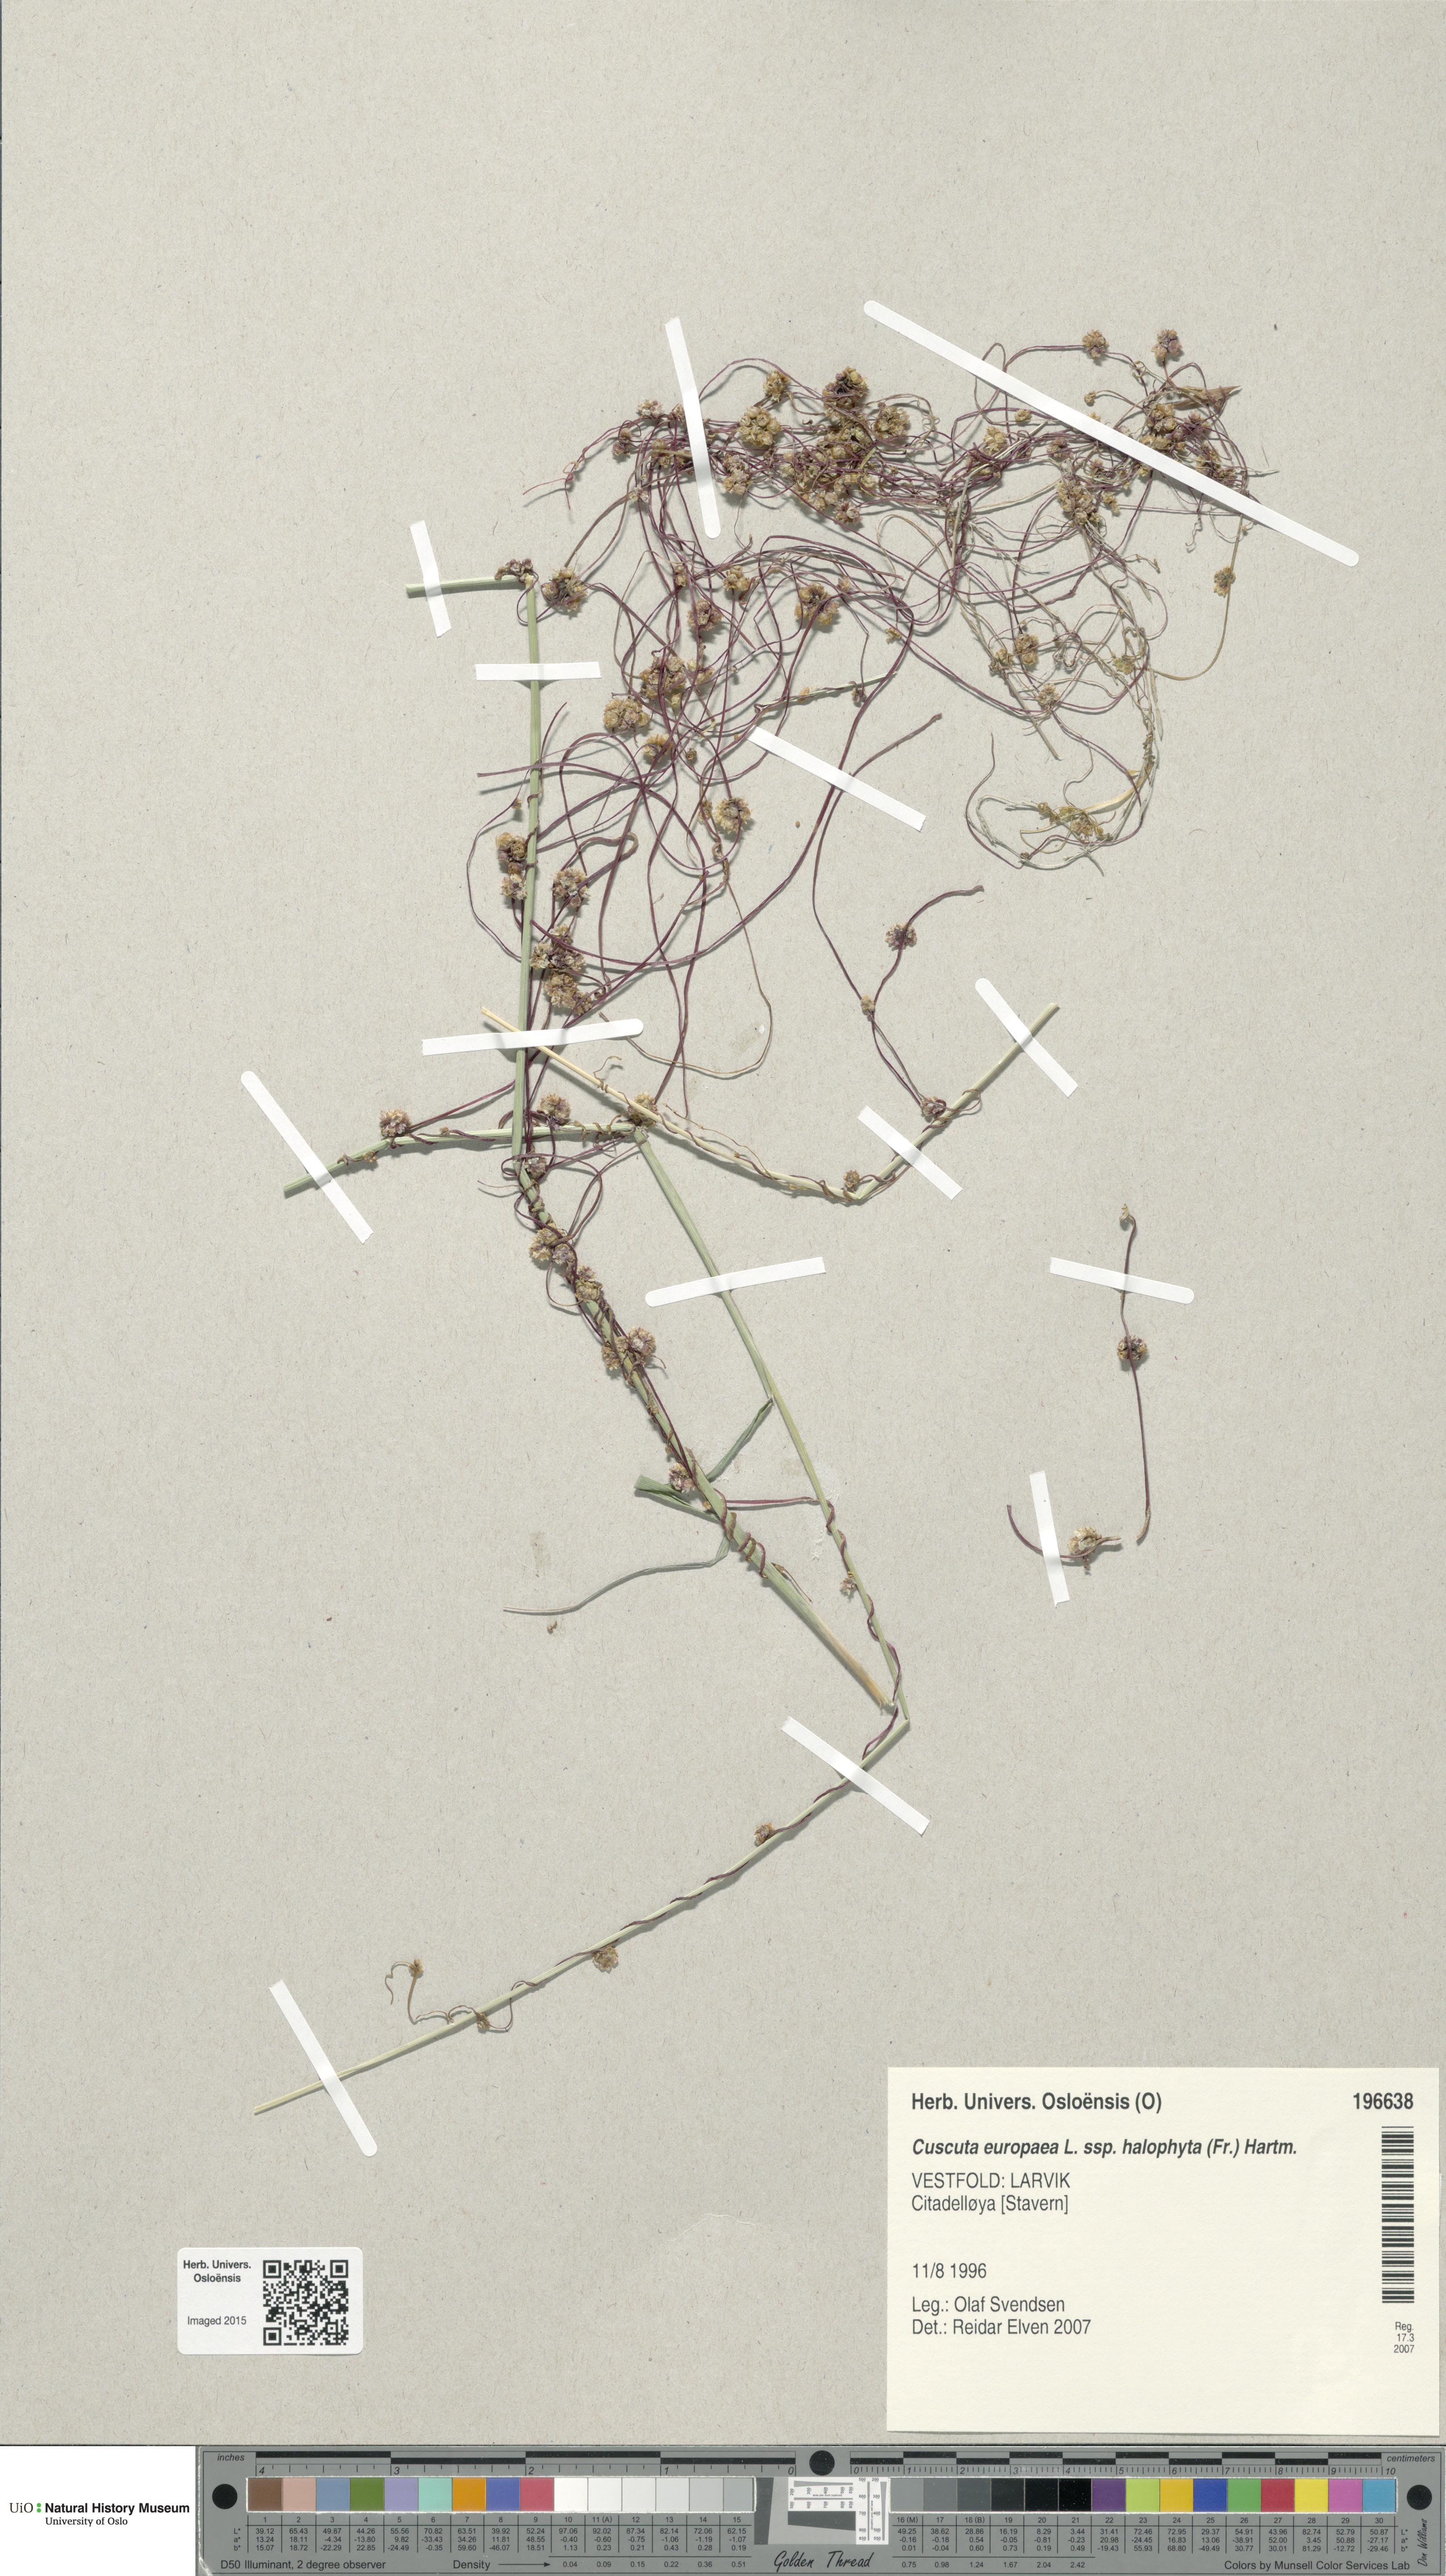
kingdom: Plantae
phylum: Tracheophyta
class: Magnoliopsida
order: Solanales
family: Convolvulaceae
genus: Cuscuta
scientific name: Cuscuta europaea
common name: Greater dodder
